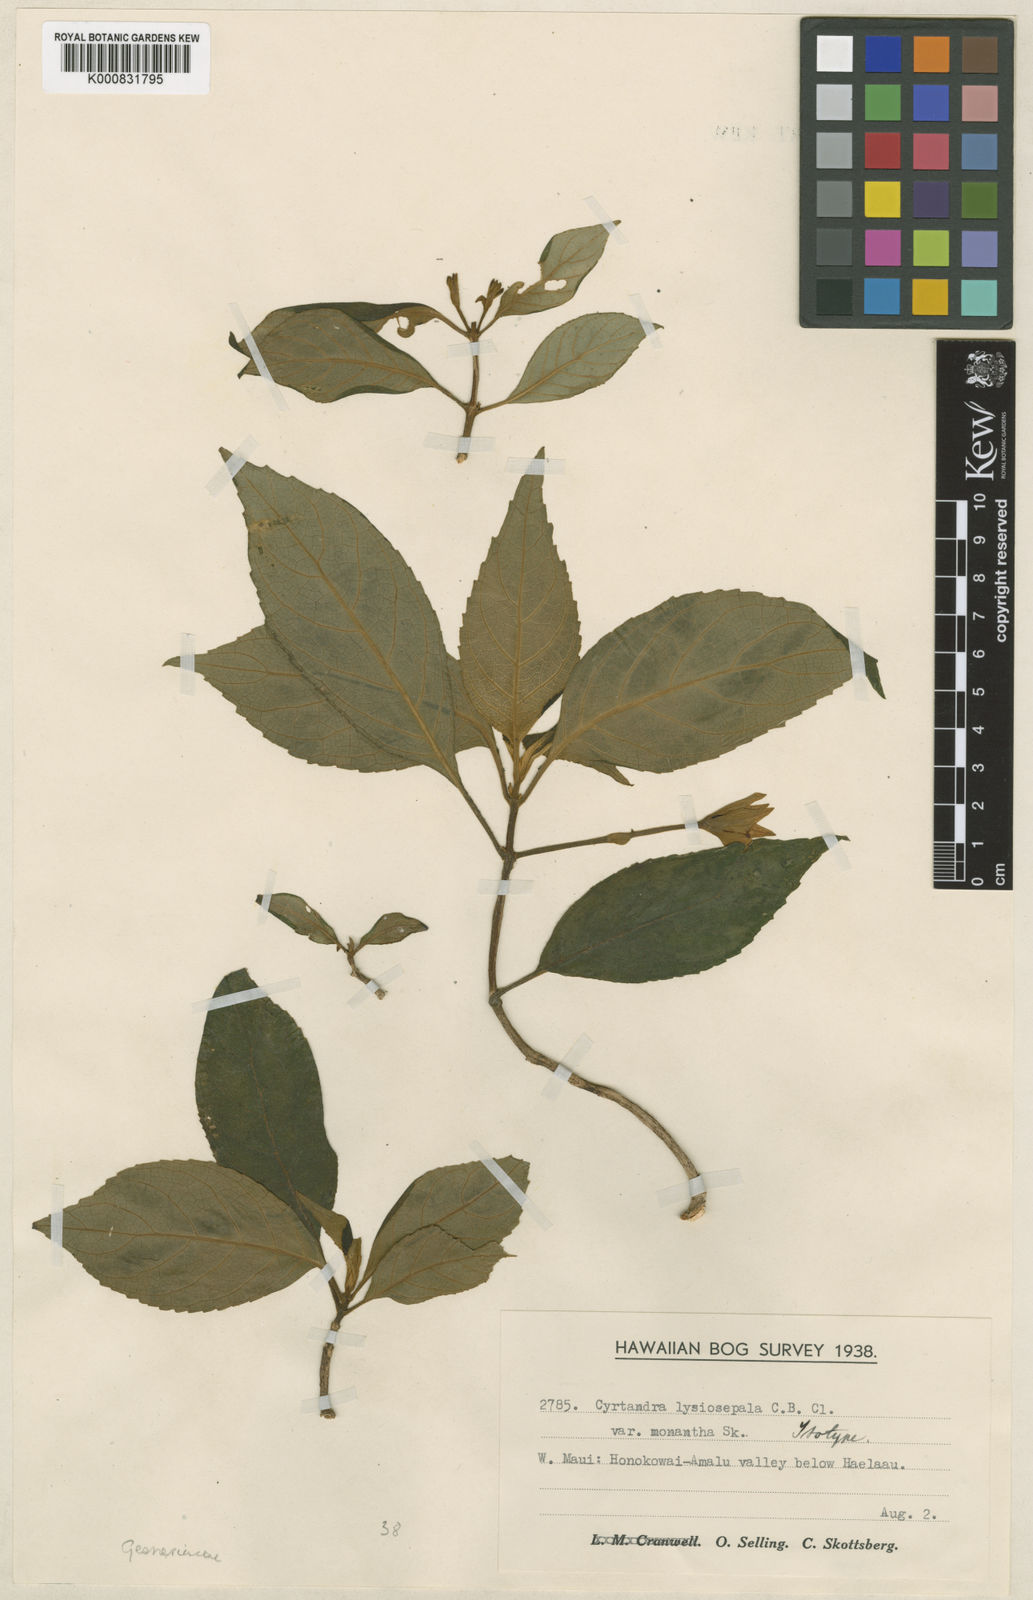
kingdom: Plantae
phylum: Tracheophyta
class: Magnoliopsida
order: Lamiales
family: Gesneriaceae
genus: Cyrtandra
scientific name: Cyrtandra lysiosepala
